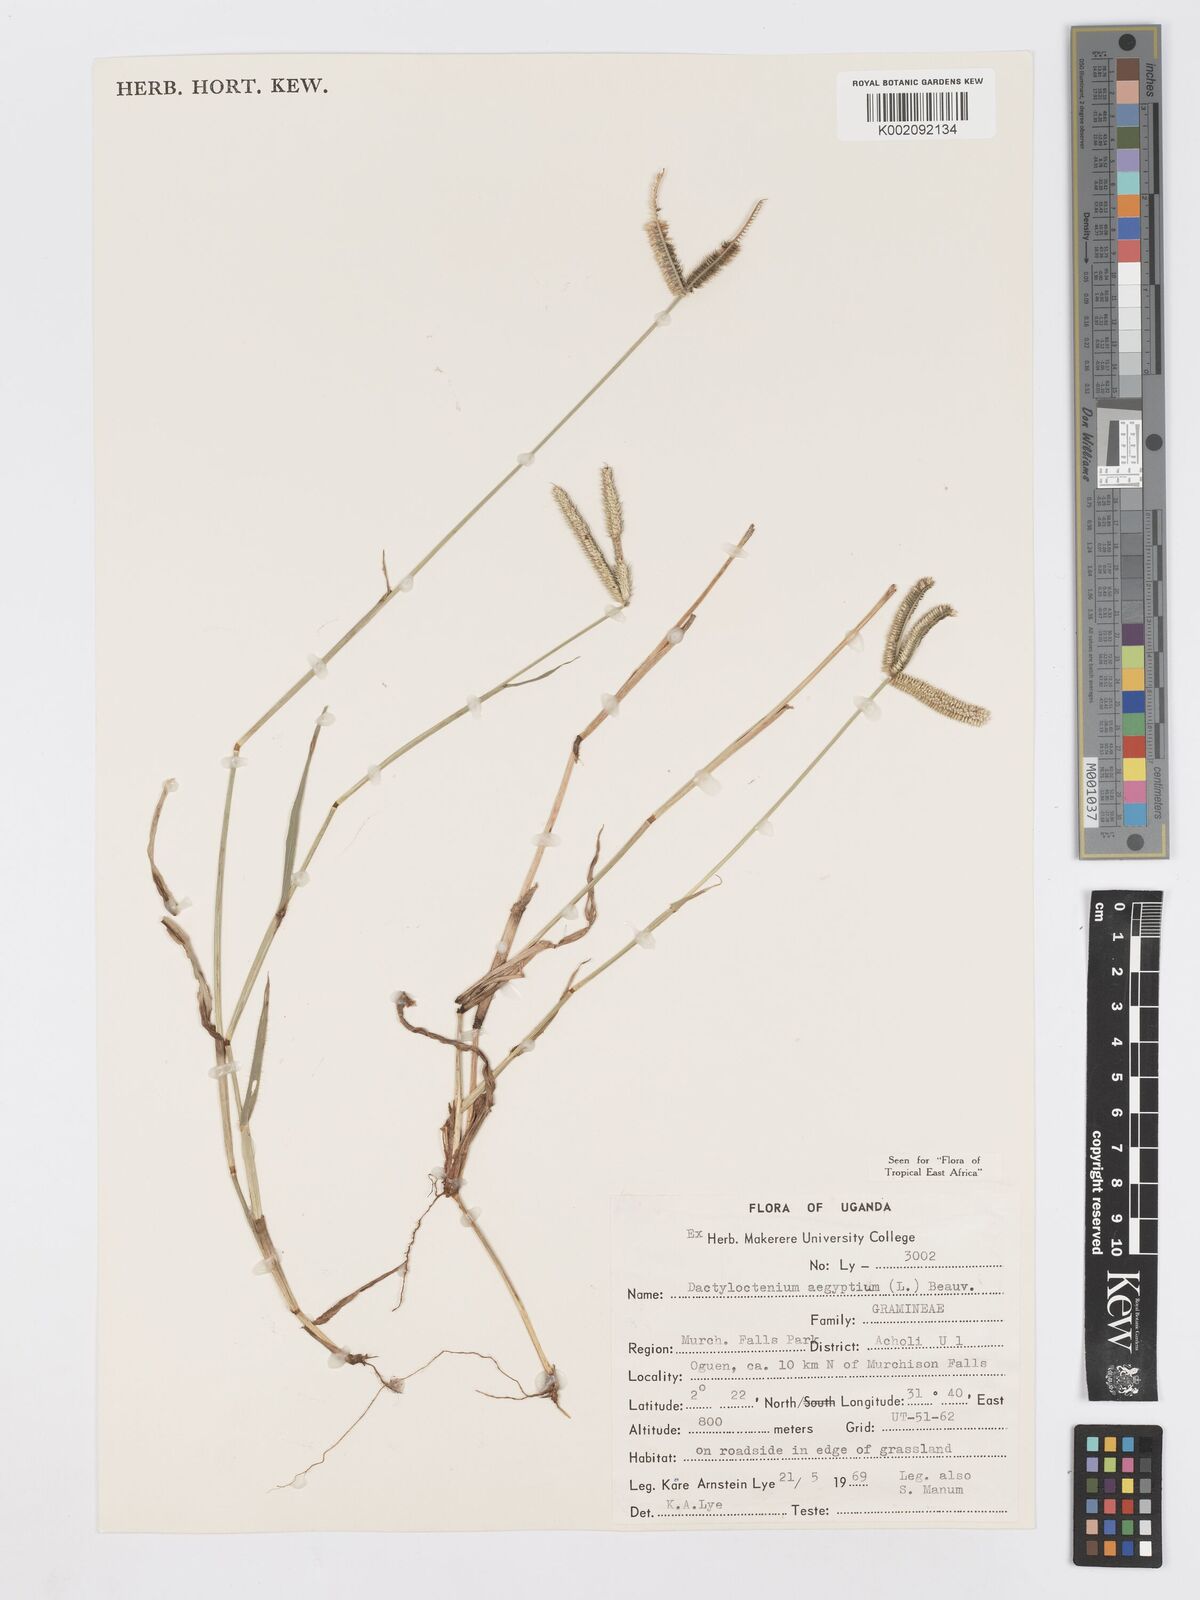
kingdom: Plantae
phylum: Tracheophyta
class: Liliopsida
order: Poales
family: Poaceae
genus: Dactyloctenium
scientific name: Dactyloctenium aegyptium
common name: Egyptian grass
